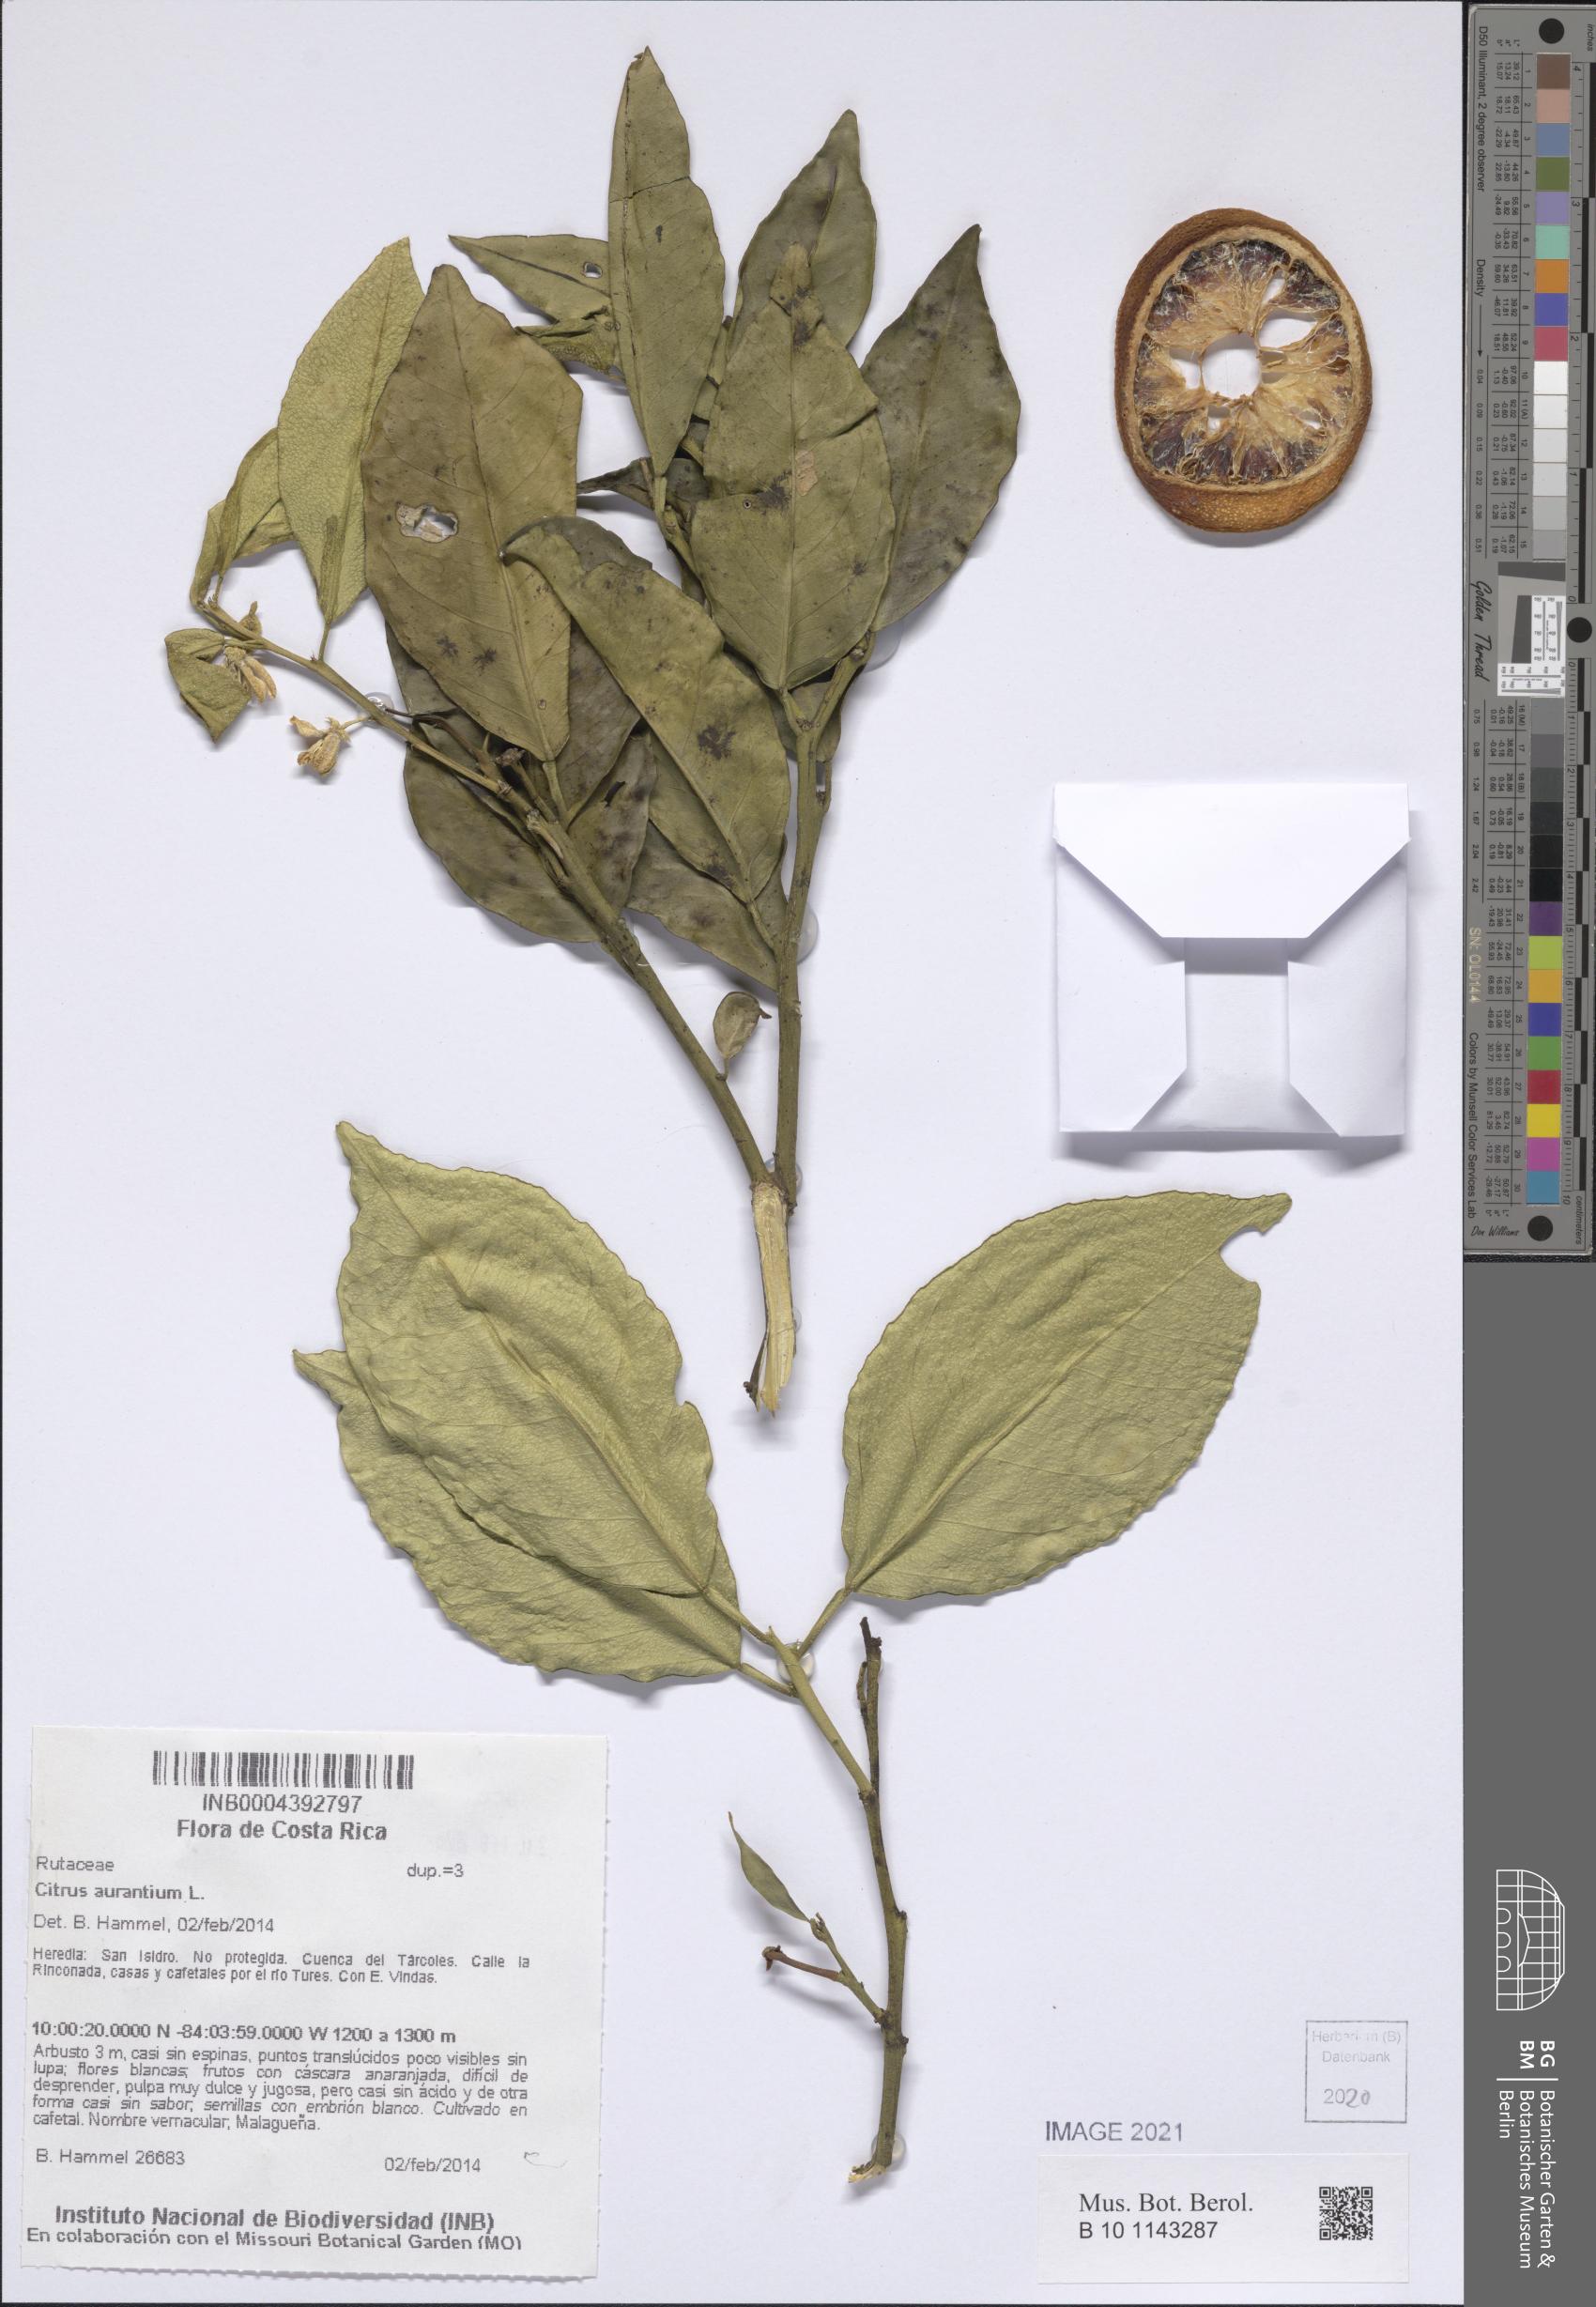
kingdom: Plantae
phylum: Tracheophyta
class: Magnoliopsida
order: Sapindales
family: Rutaceae
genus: Citrus
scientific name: Citrus aurantium
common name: Sour orange
